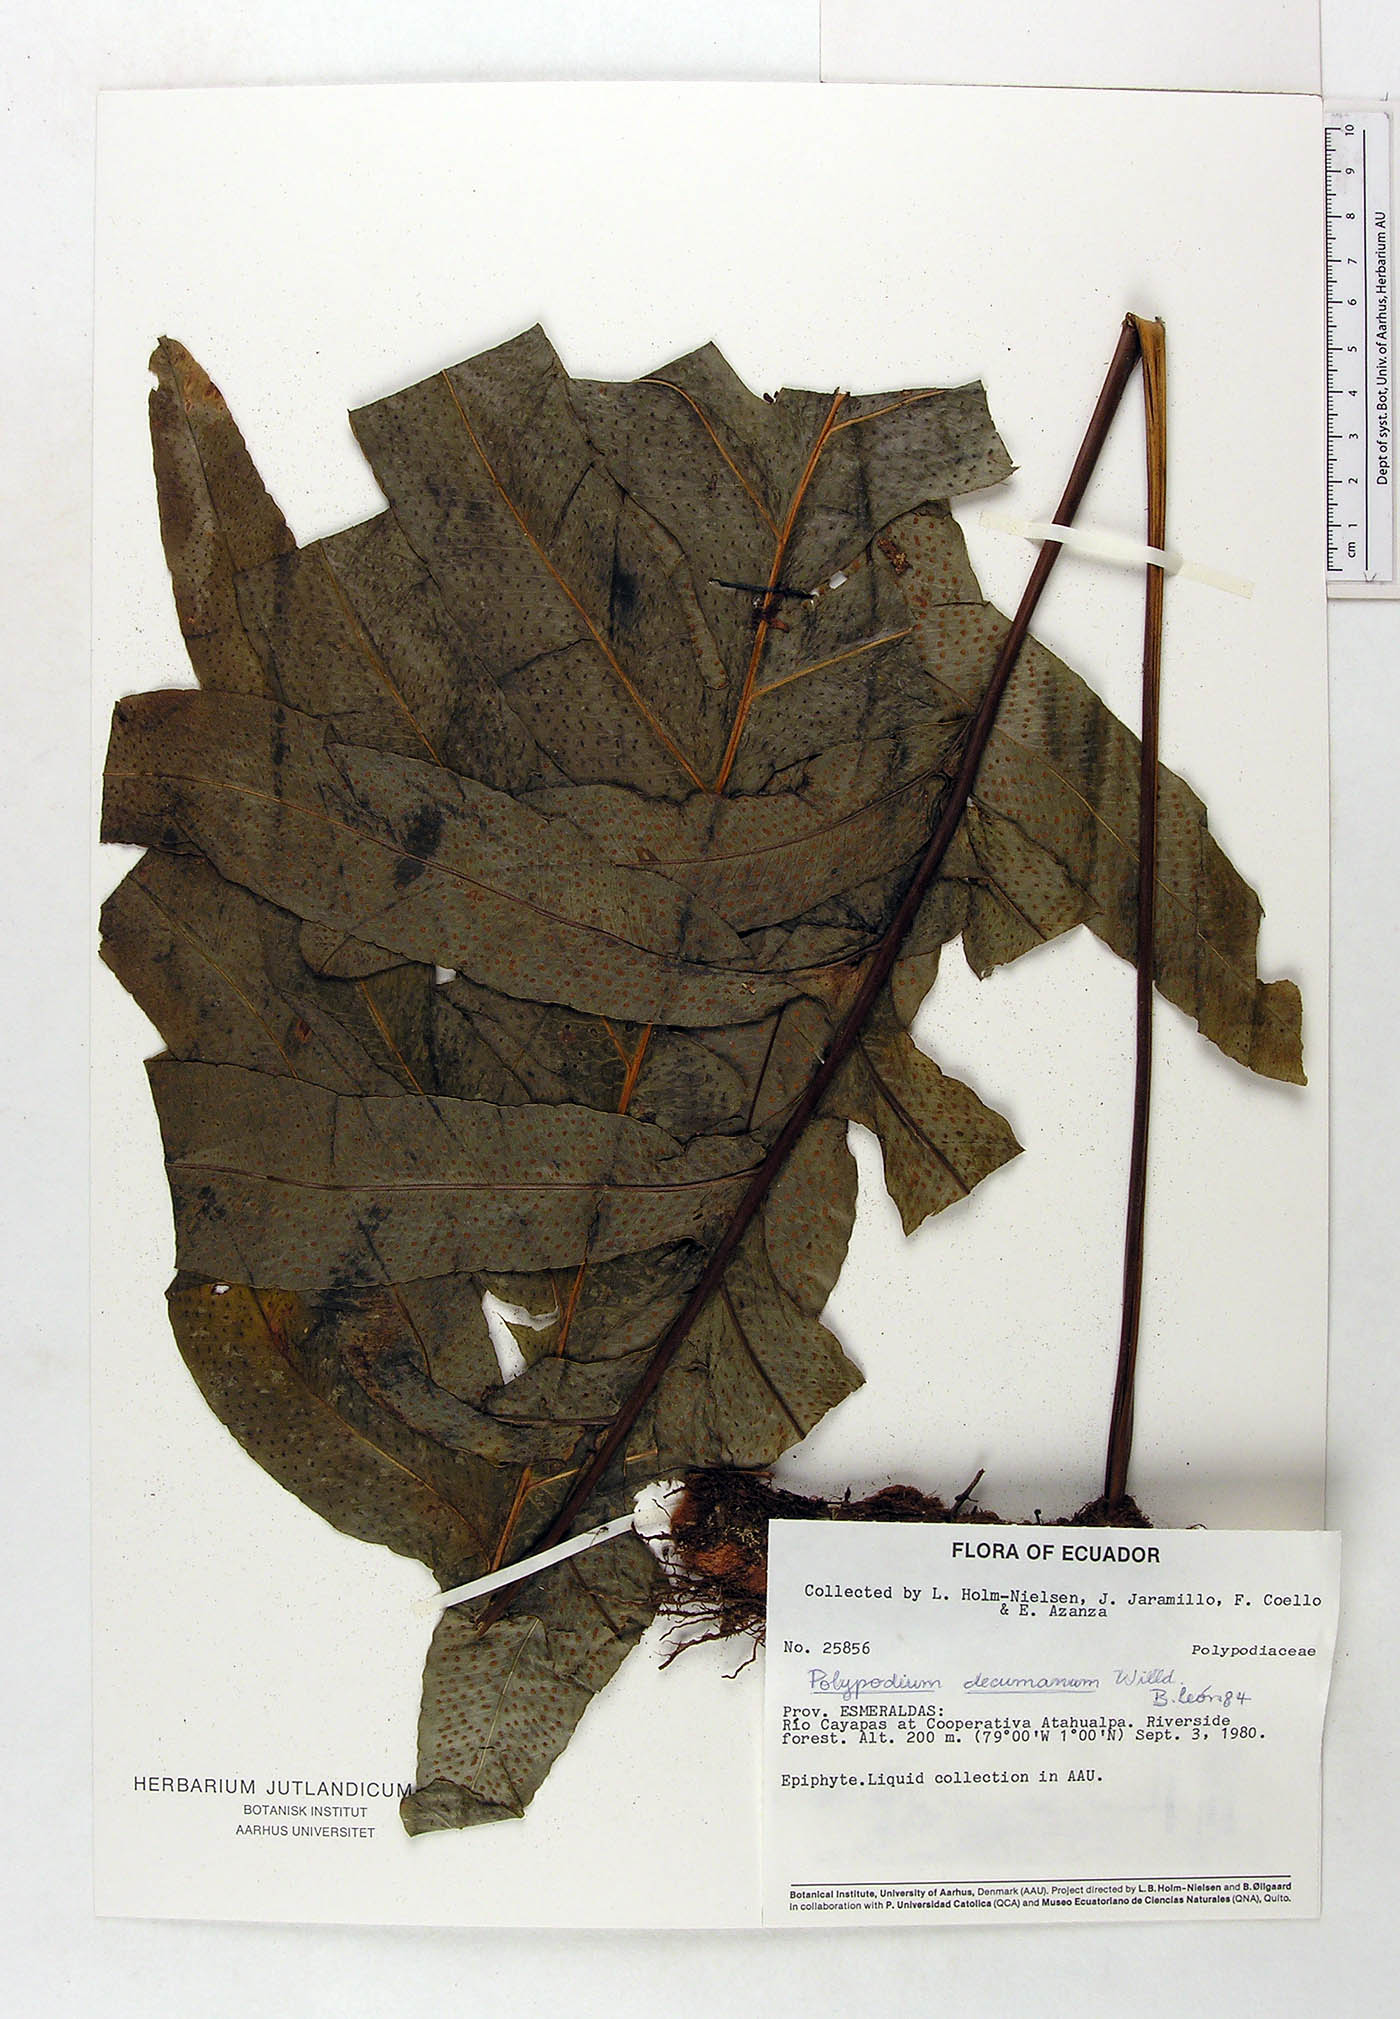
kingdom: Plantae
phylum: Tracheophyta
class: Polypodiopsida
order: Polypodiales
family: Polypodiaceae
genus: Phlebodium
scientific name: Phlebodium decumanum
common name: Golden polypod
